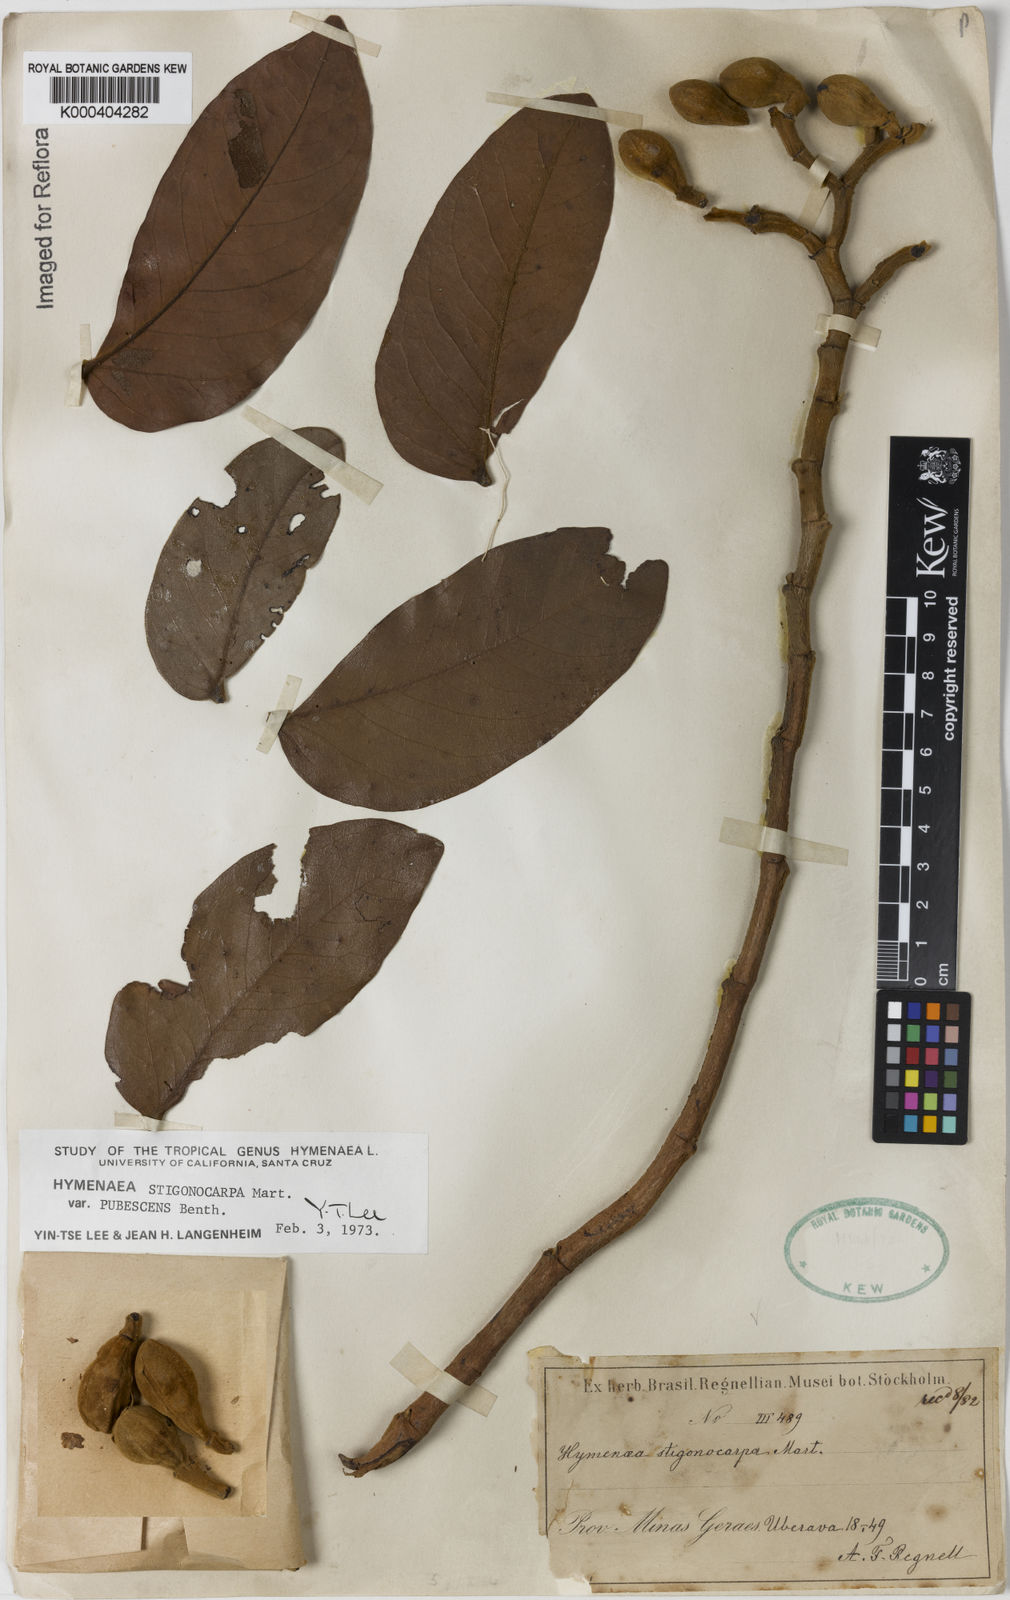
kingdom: Plantae
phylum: Tracheophyta
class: Magnoliopsida
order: Fabales
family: Fabaceae
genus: Hymenaea
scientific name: Hymenaea stigonocarpa
